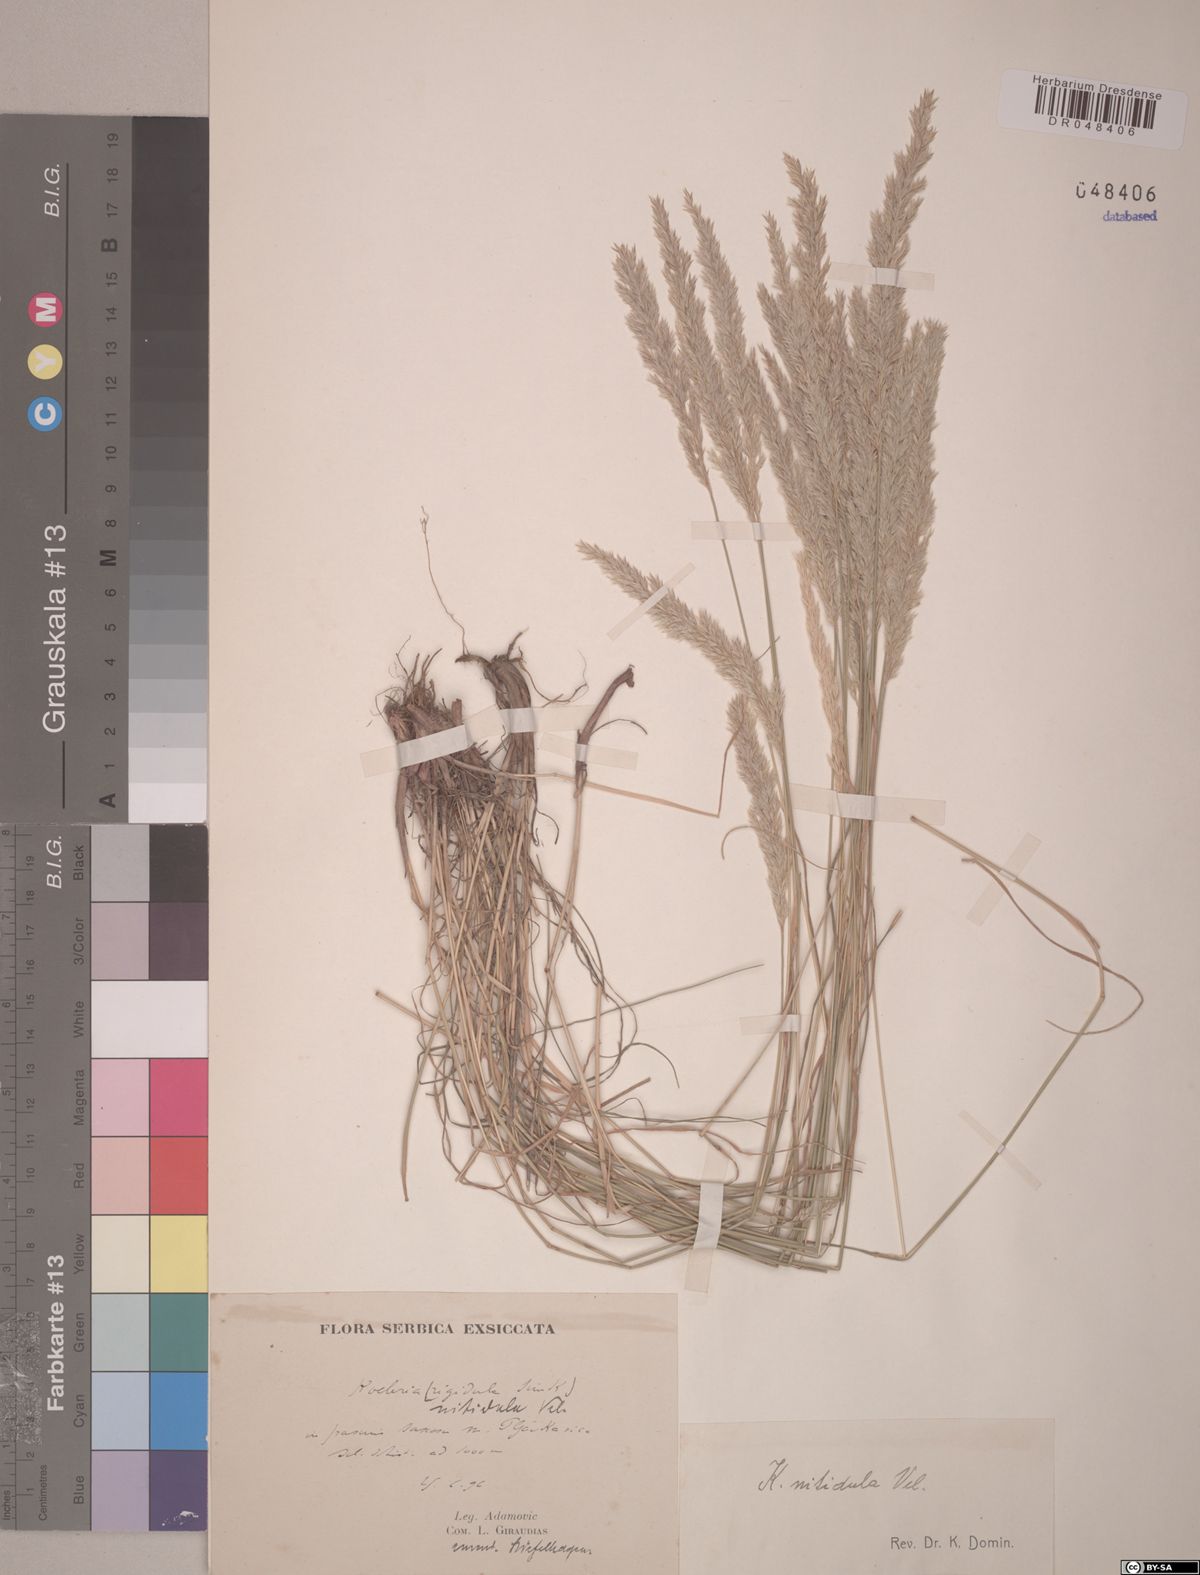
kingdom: Plantae
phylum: Tracheophyta
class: Liliopsida
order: Poales
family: Poaceae
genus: Koeleria
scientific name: Koeleria nitidula
